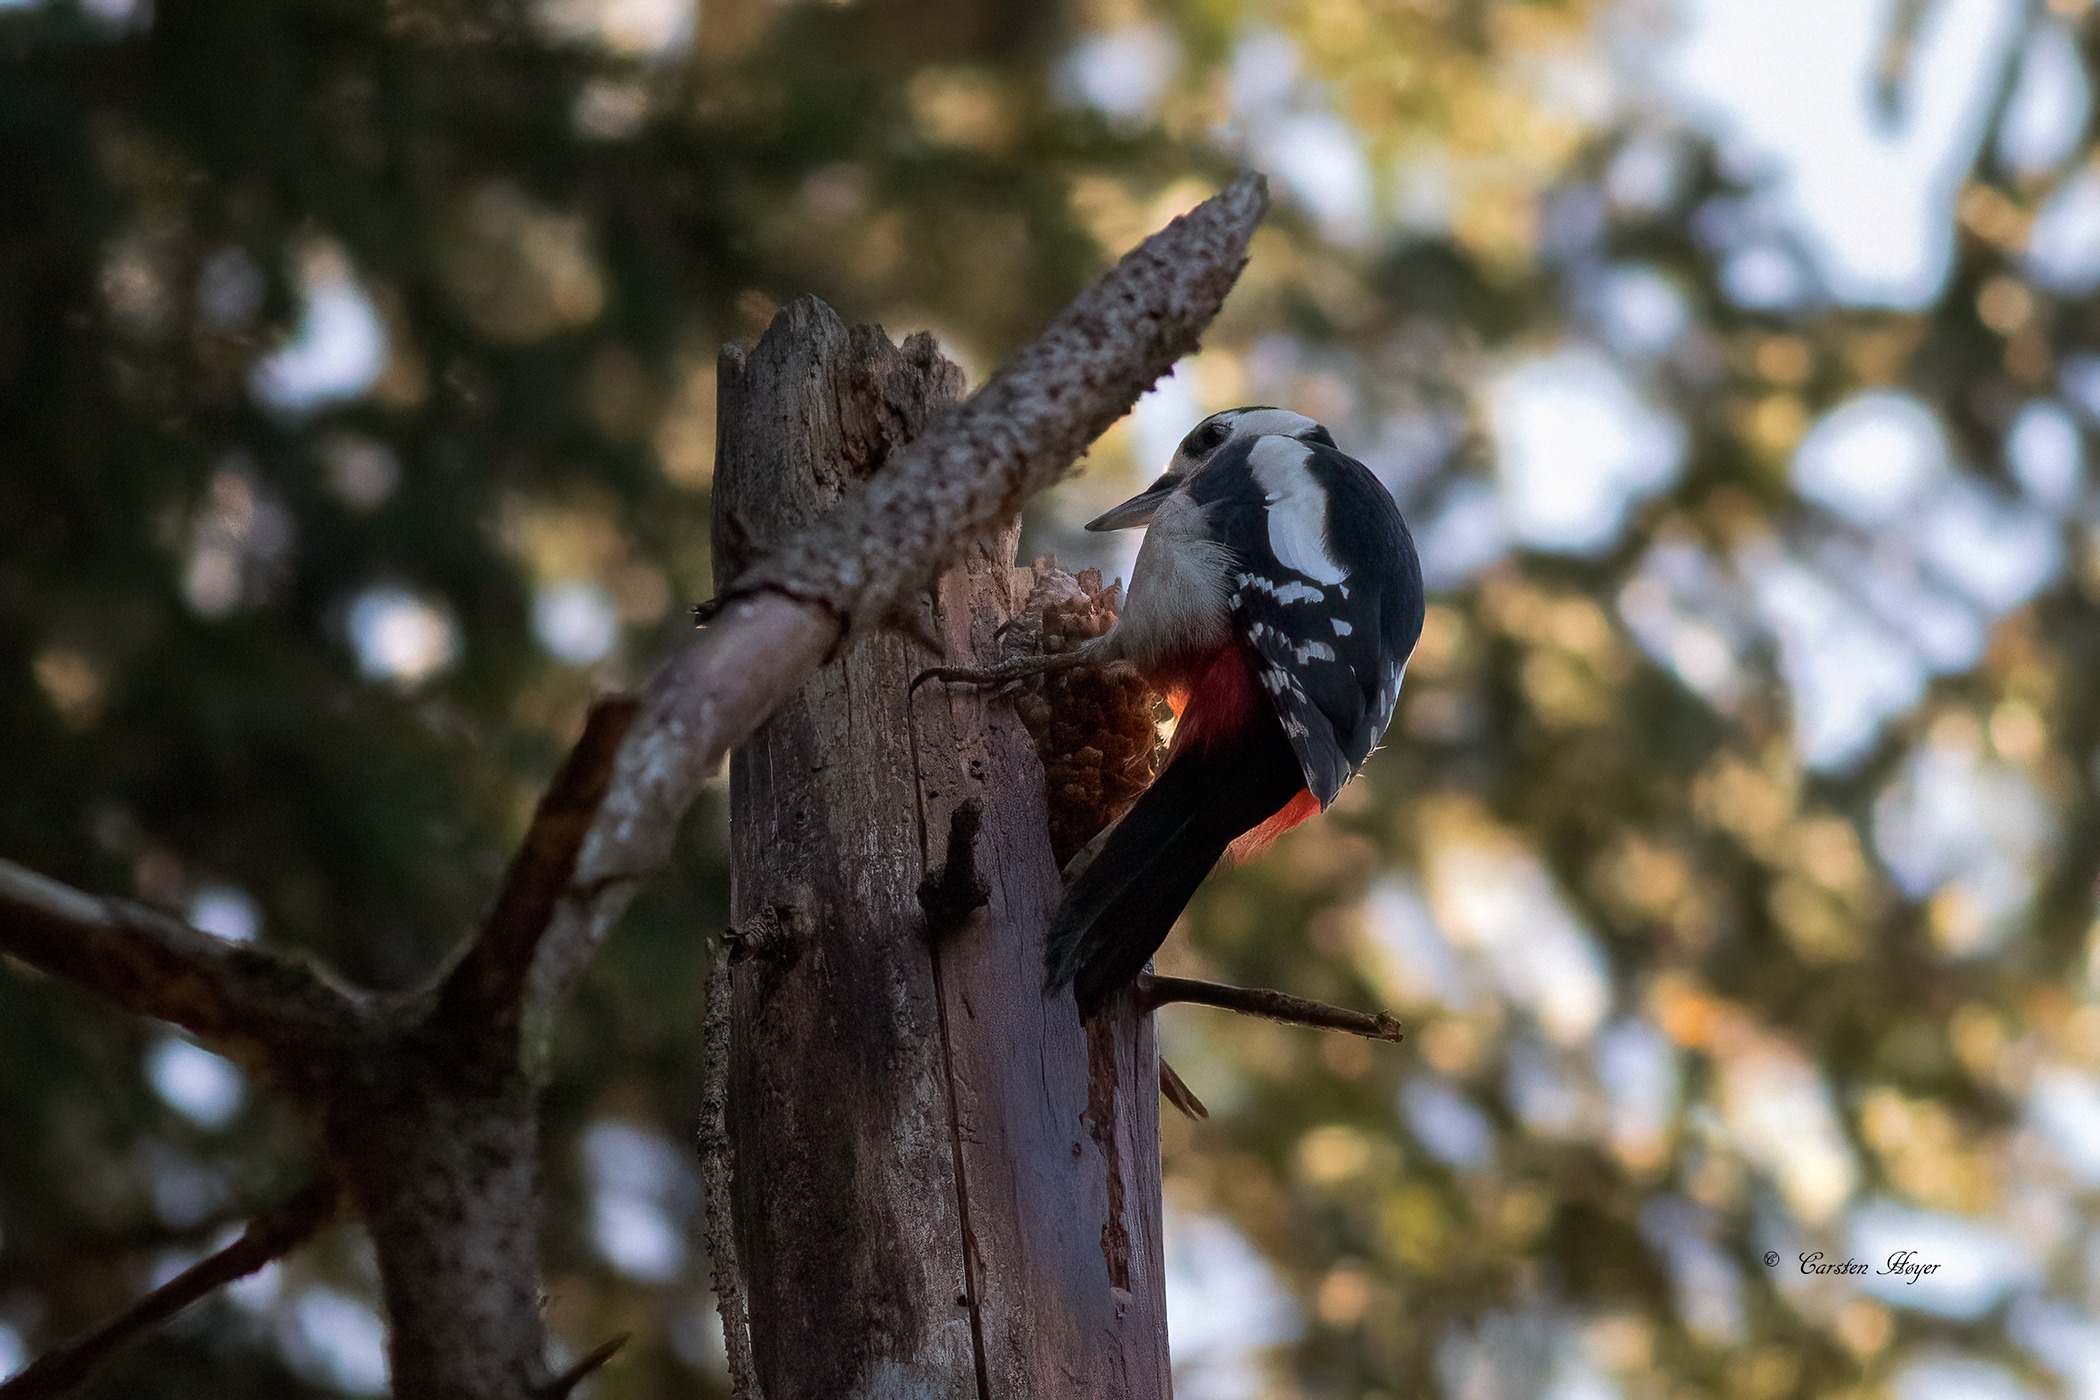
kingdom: Animalia
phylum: Chordata
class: Aves
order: Piciformes
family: Picidae
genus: Dendrocopos
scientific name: Dendrocopos major
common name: Stor flagspætte
